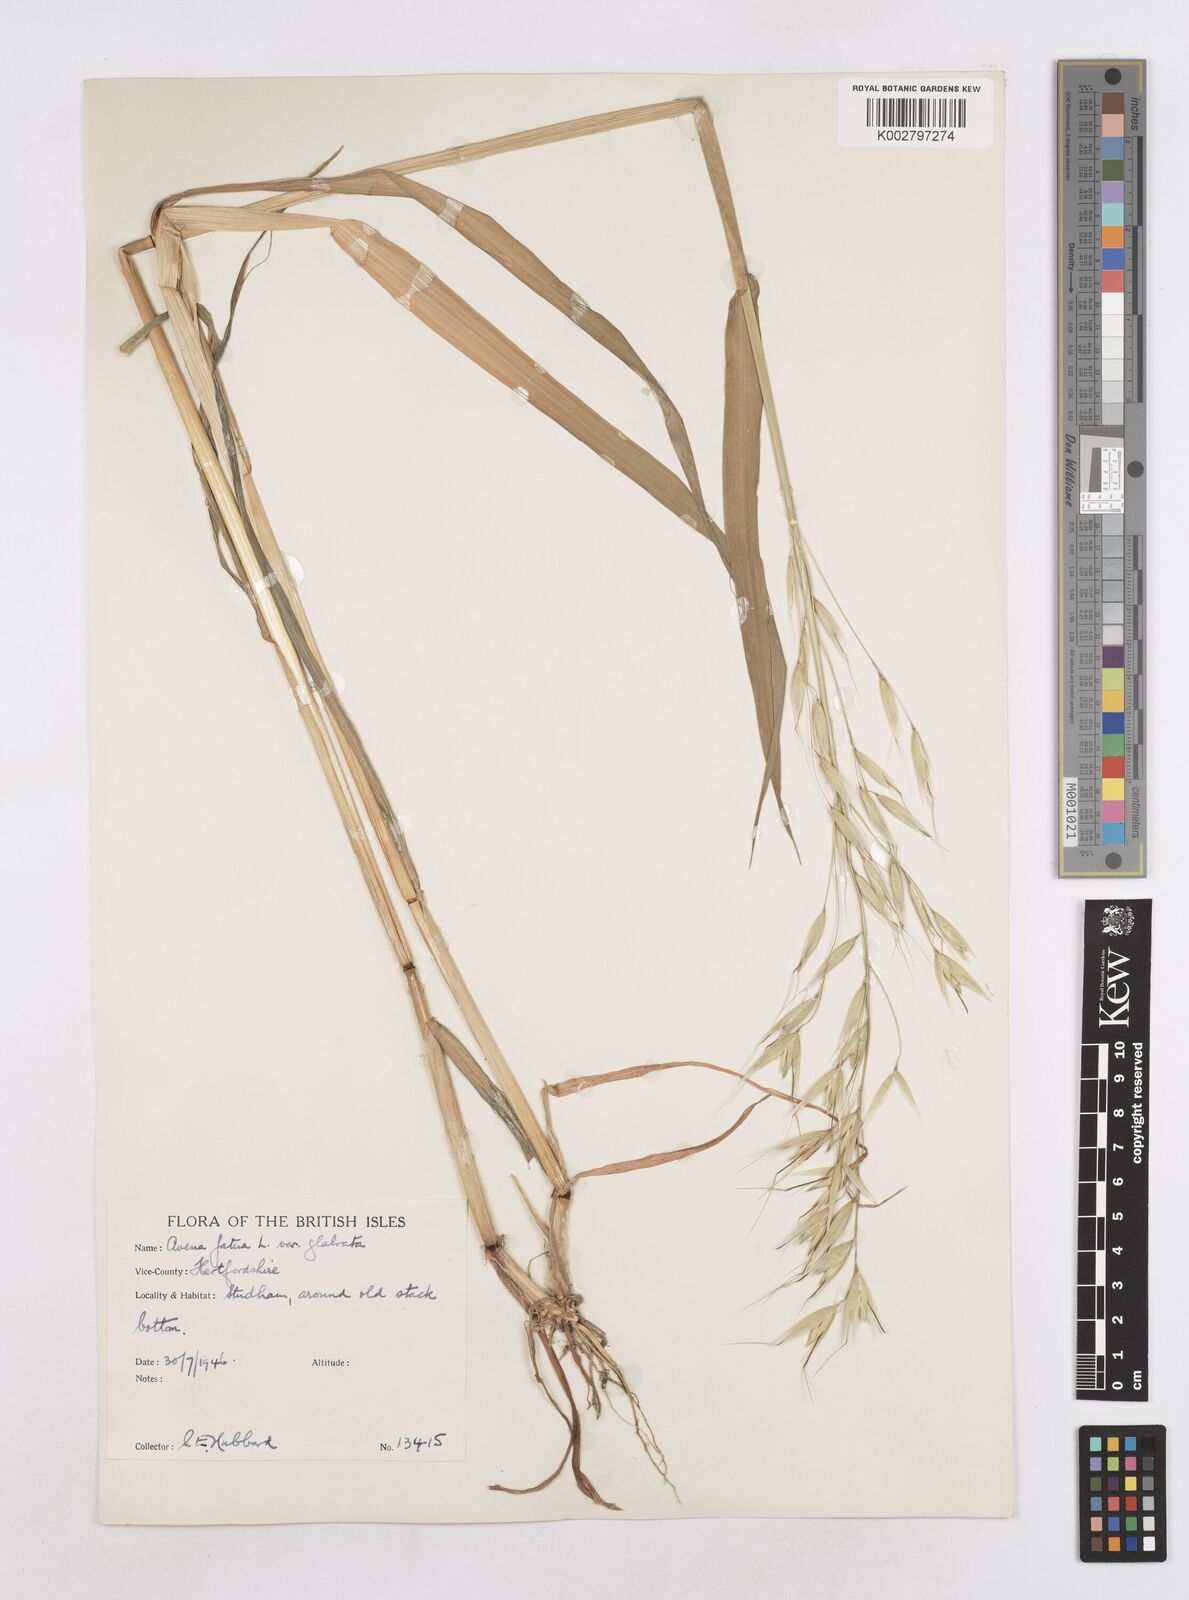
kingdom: Plantae
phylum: Tracheophyta
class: Liliopsida
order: Poales
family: Poaceae
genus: Avena
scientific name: Avena fatua
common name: Wild oat
